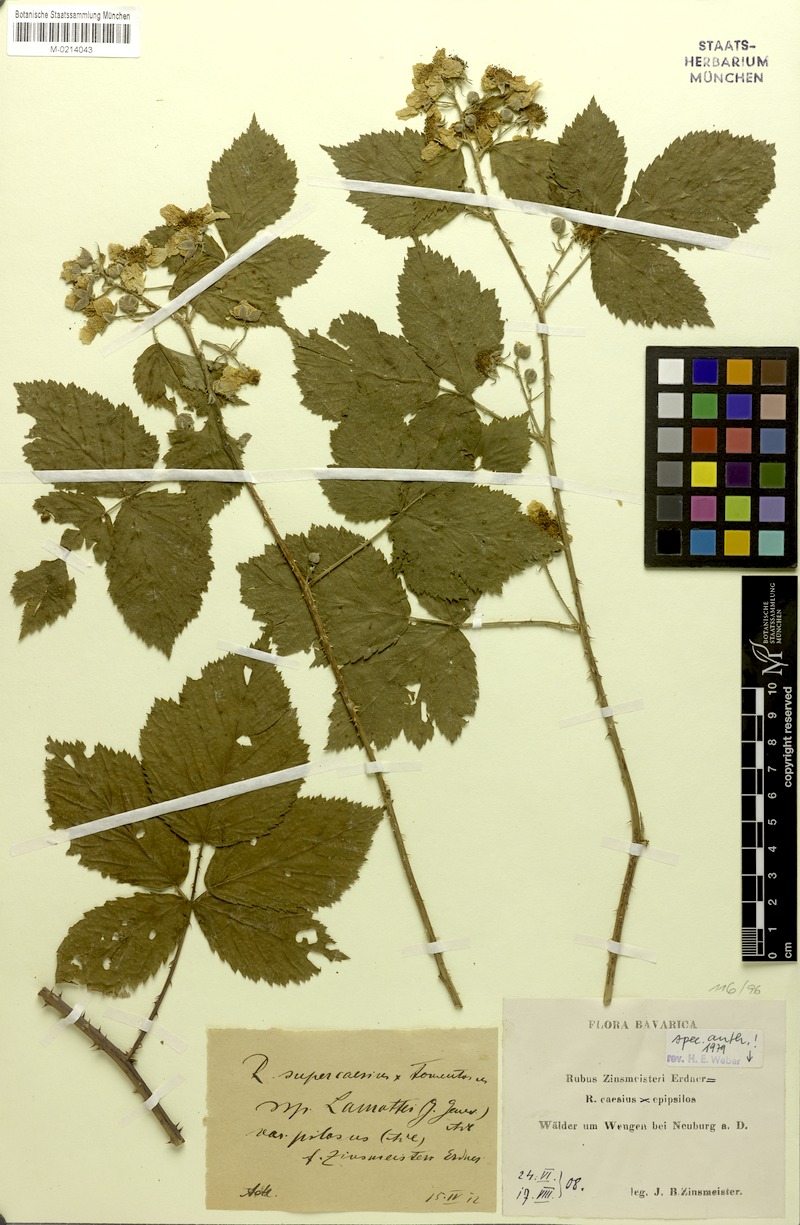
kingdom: Plantae
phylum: Tracheophyta
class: Magnoliopsida
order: Rosales
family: Rosaceae
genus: Rubus
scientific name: Rubus zinsmeisteri
